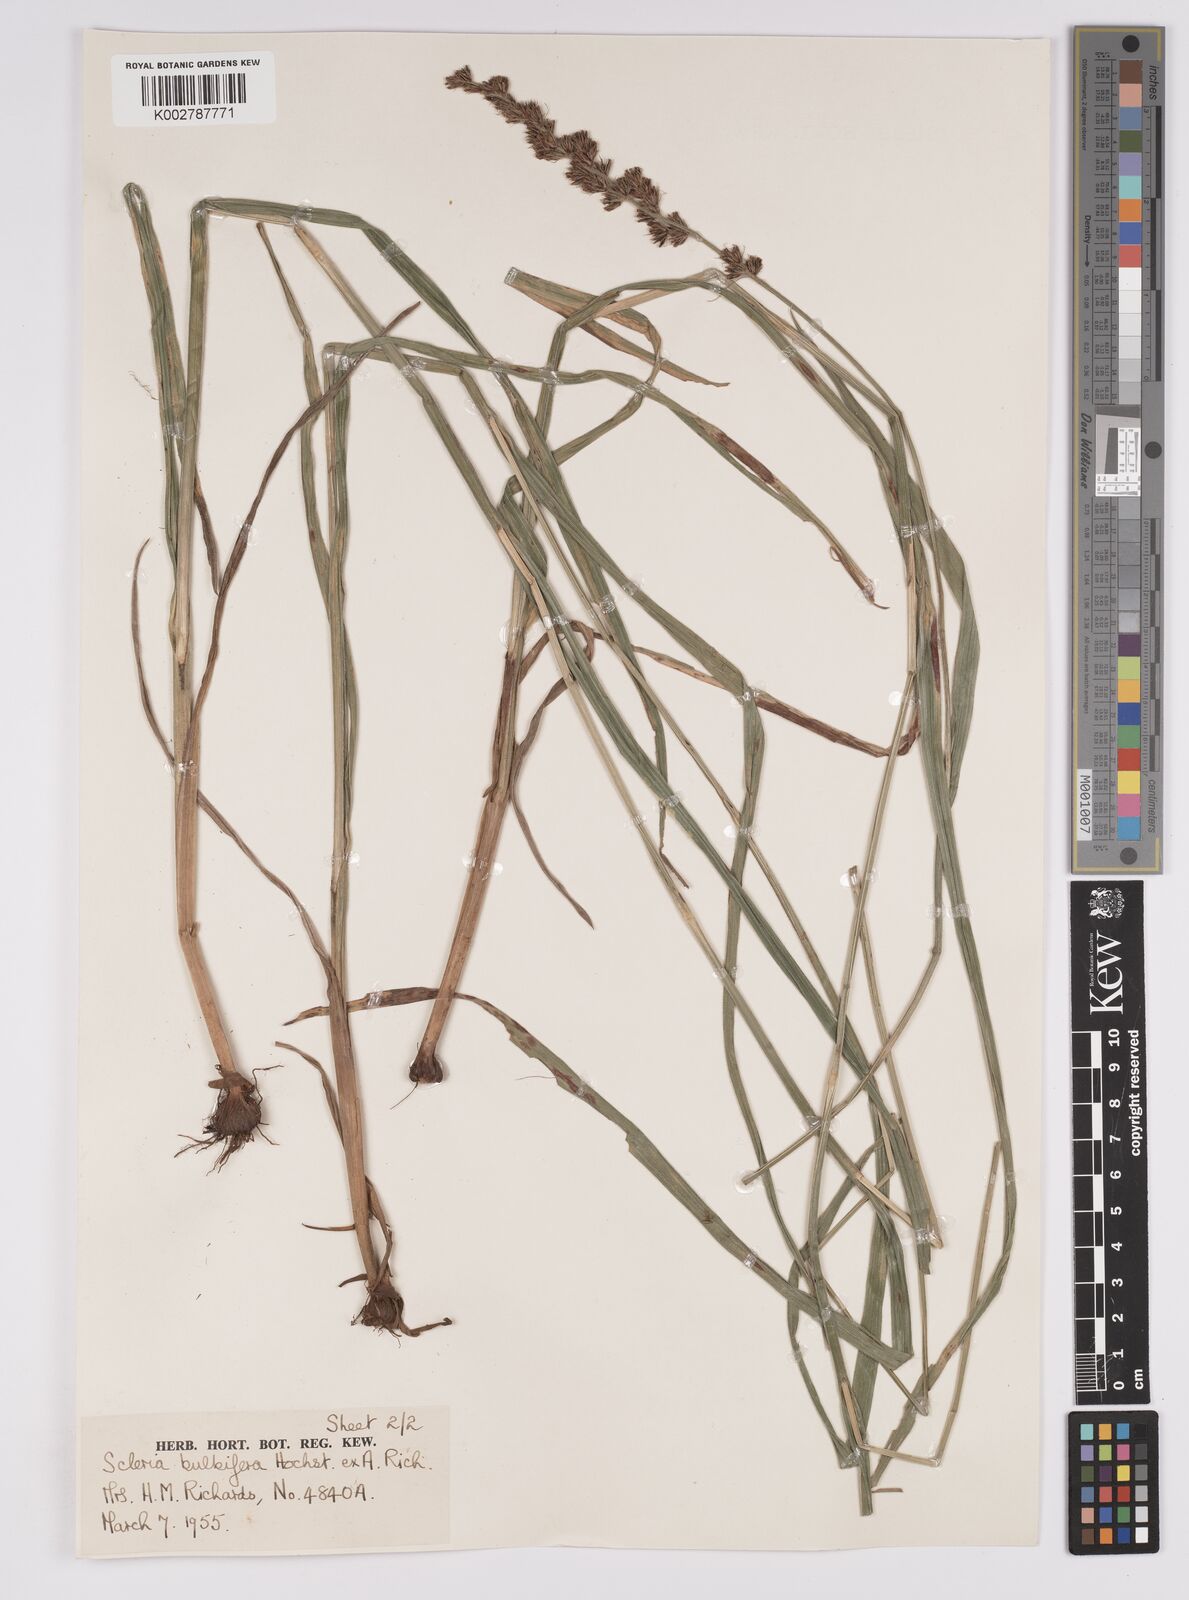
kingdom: Plantae
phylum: Tracheophyta
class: Liliopsida
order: Poales
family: Cyperaceae
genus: Scleria
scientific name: Scleria bulbifera
